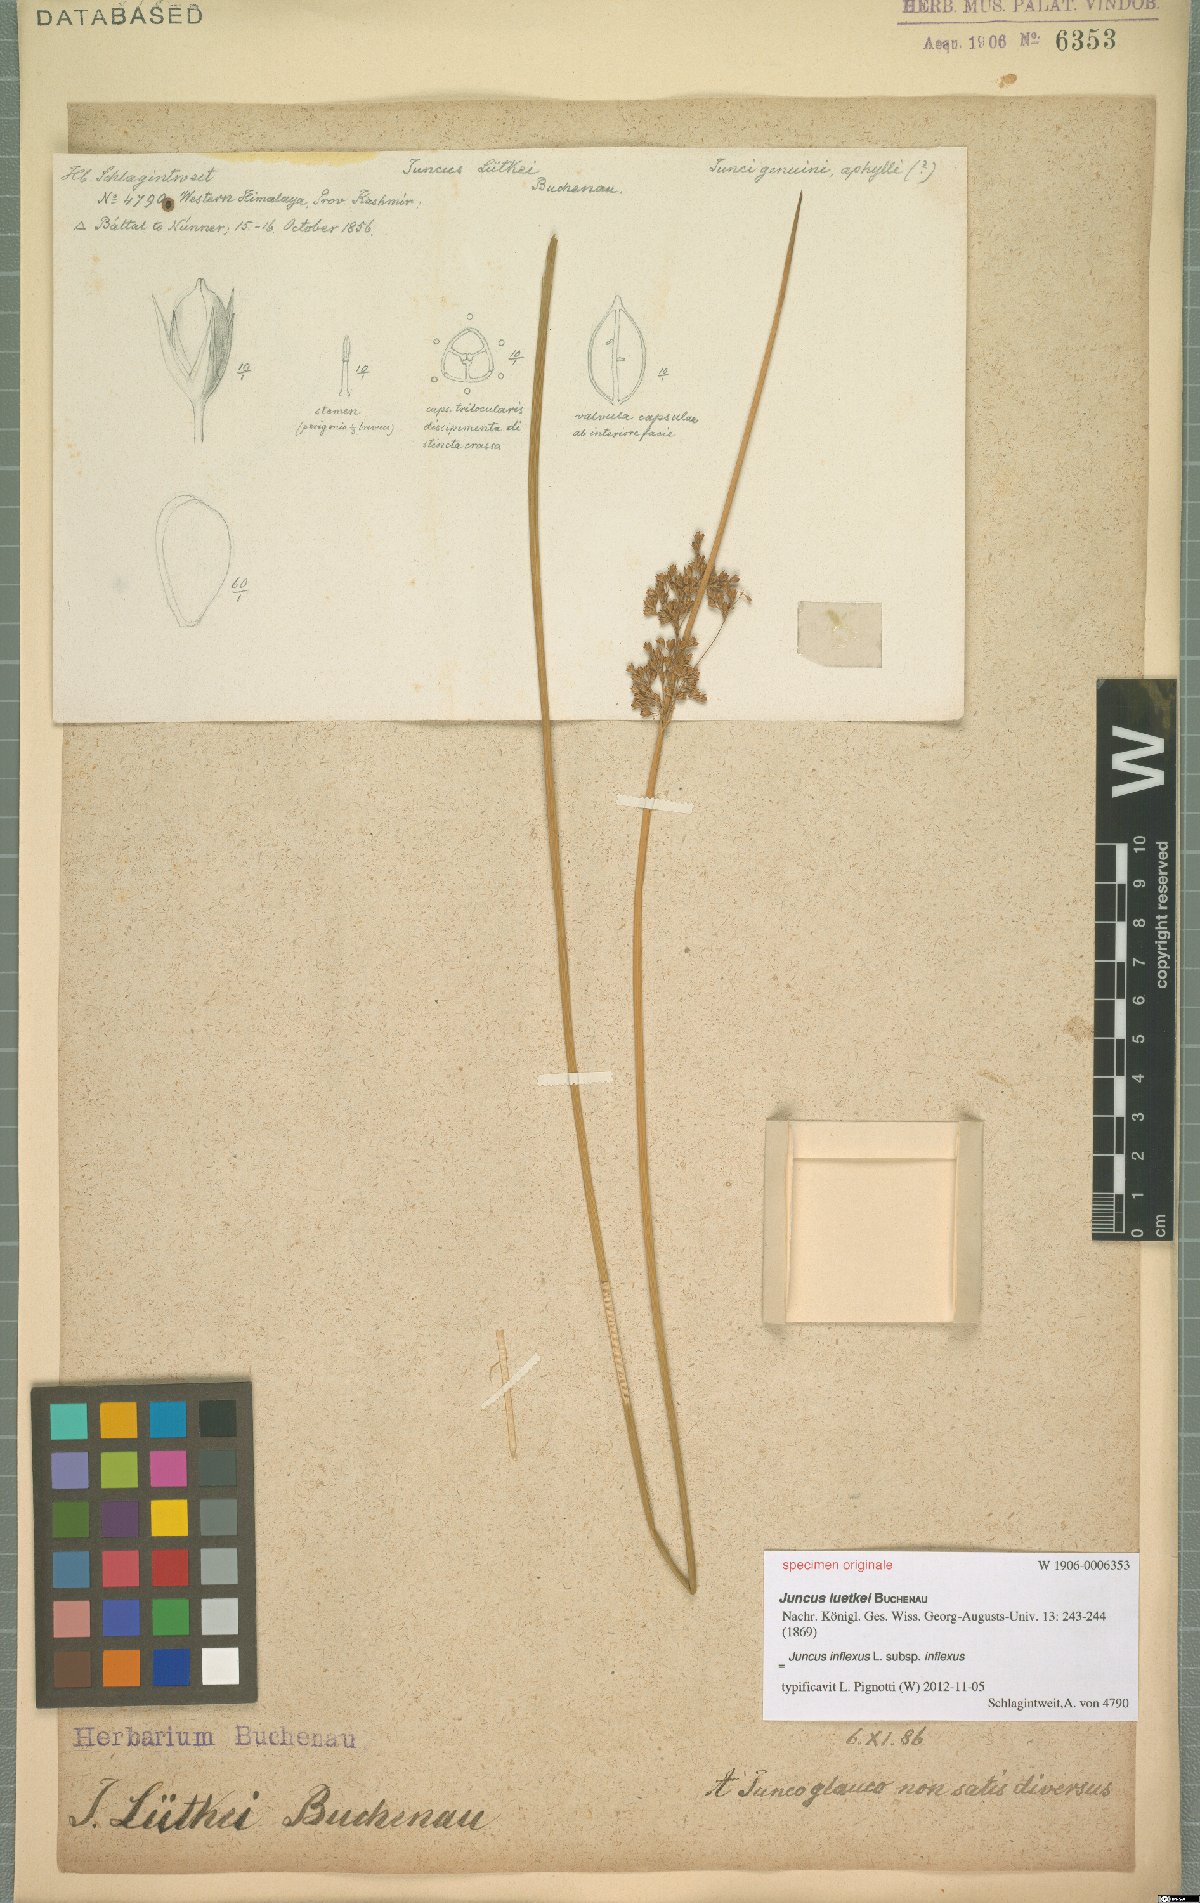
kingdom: Plantae
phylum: Tracheophyta
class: Liliopsida
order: Poales
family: Juncaceae
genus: Juncus
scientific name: Juncus inflexus
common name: Hard rush
